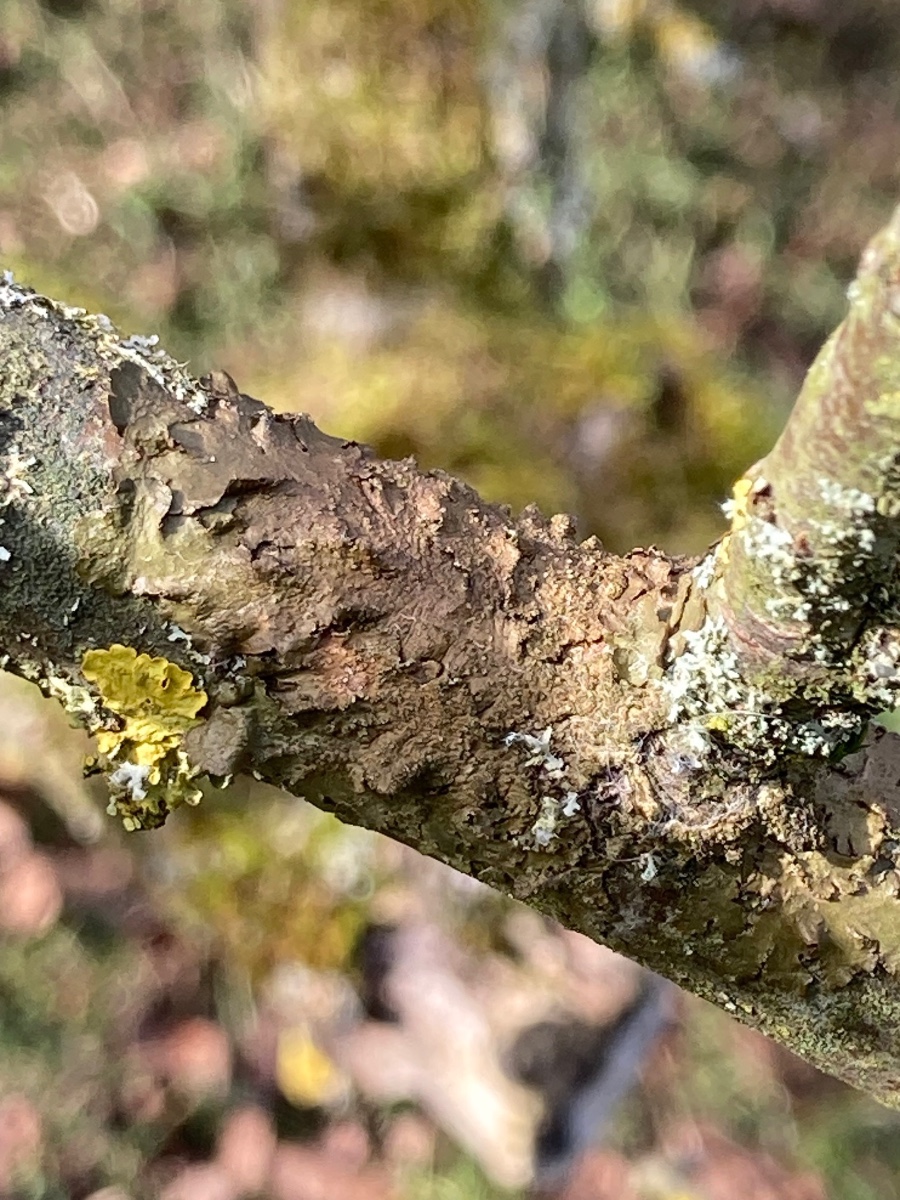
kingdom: Fungi
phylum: Ascomycota
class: Lecanoromycetes
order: Lecanorales
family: Parmeliaceae
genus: Melanelixia
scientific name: Melanelixia subaurifera
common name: guldpudret skållav
